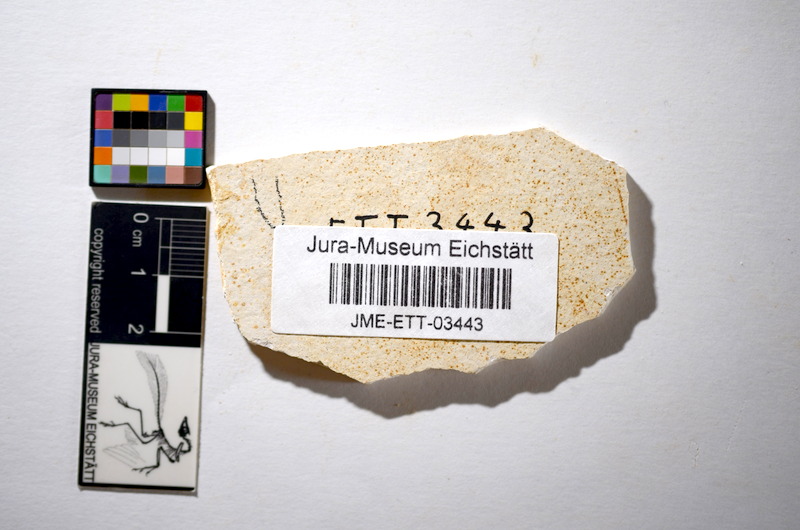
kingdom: Animalia
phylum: Chordata
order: Salmoniformes
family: Orthogonikleithridae
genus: Orthogonikleithrus
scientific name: Orthogonikleithrus hoelli
